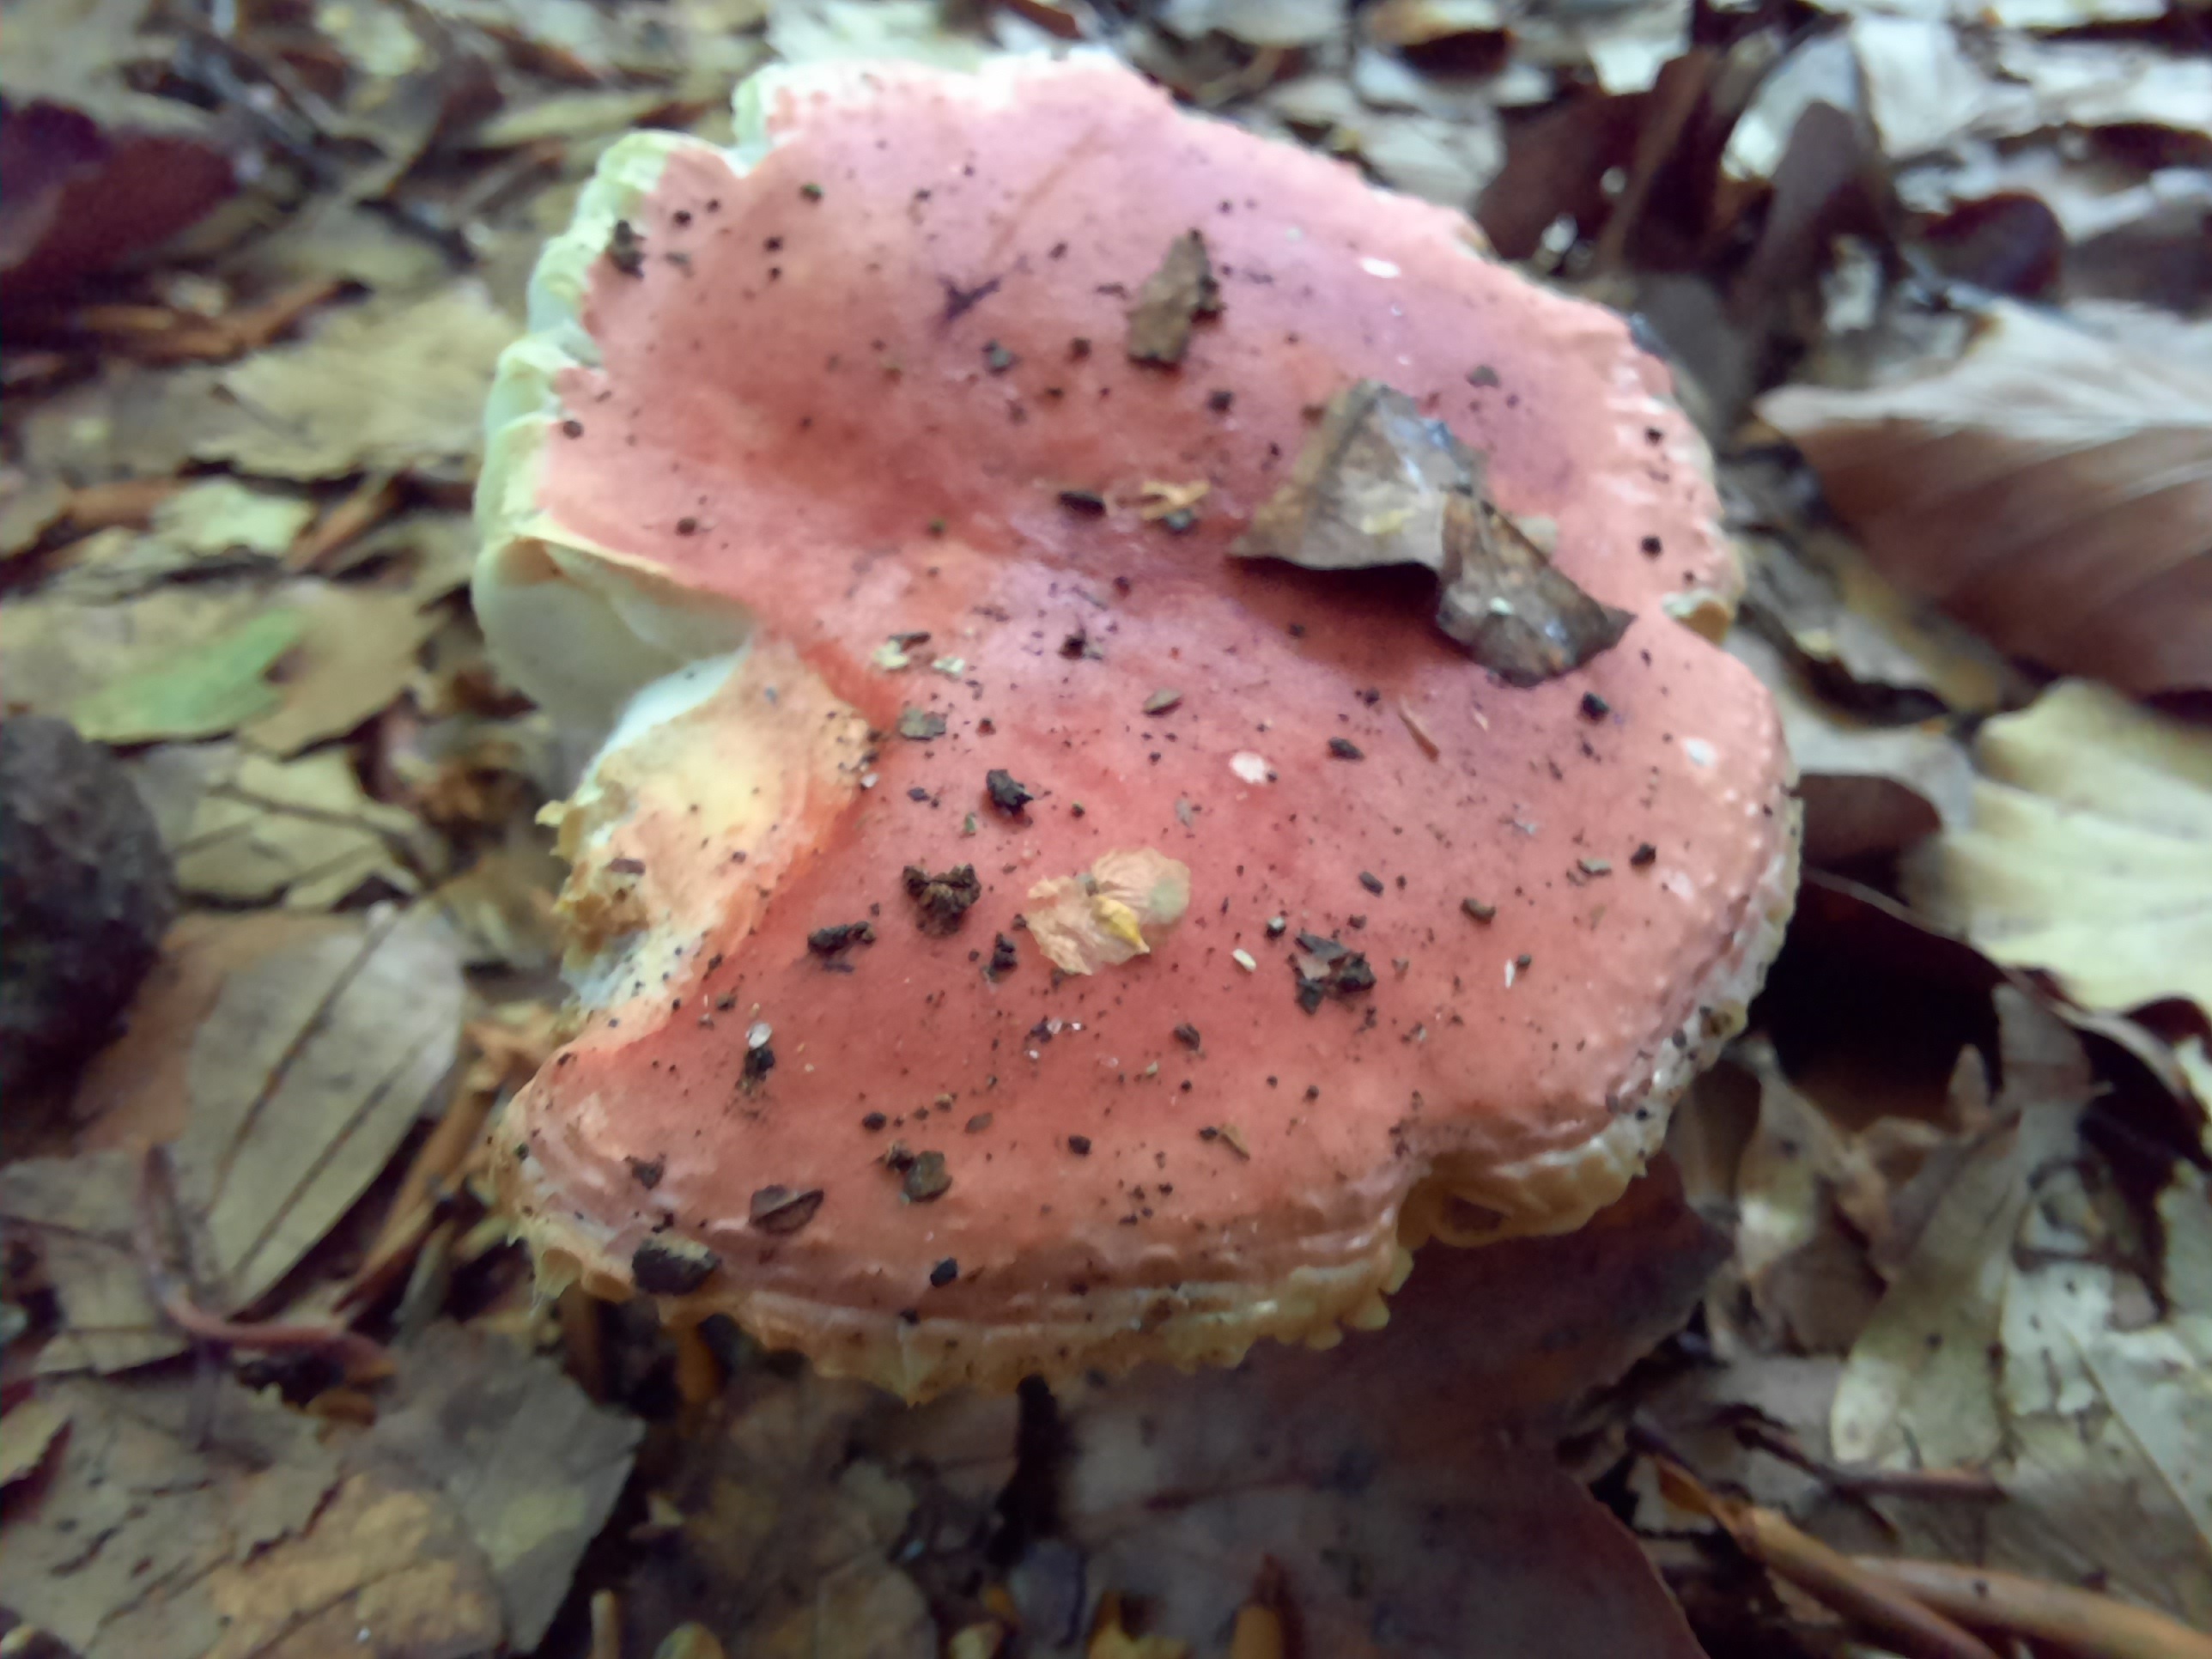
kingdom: Fungi
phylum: Basidiomycota
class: Agaricomycetes
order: Russulales
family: Russulaceae
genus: Russula
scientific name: Russula
